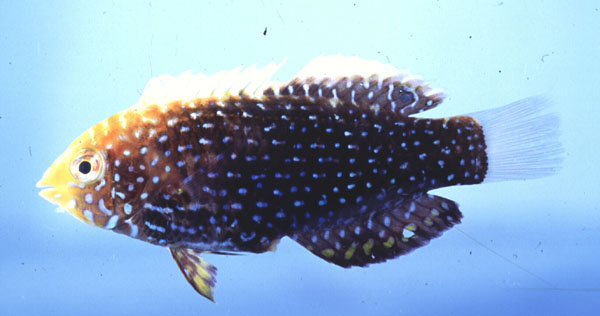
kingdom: Animalia
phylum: Chordata
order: Perciformes
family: Labridae
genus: Macropharyngodon
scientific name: Macropharyngodon cyanoguttatus
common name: Bluespotted wrasse
